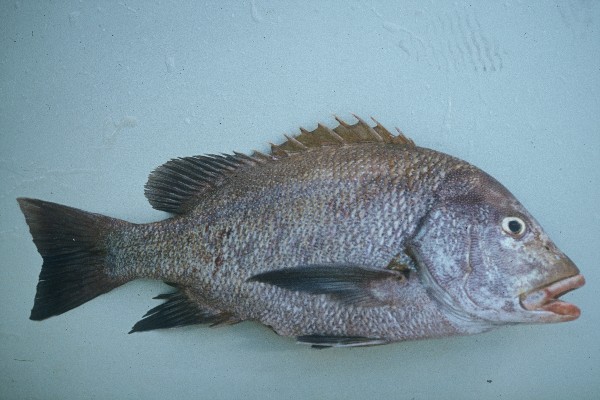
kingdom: Animalia
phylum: Chordata
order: Perciformes
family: Lutjanidae
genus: Lutjanus
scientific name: Lutjanus rivulatus
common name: Blubberlip snapper
